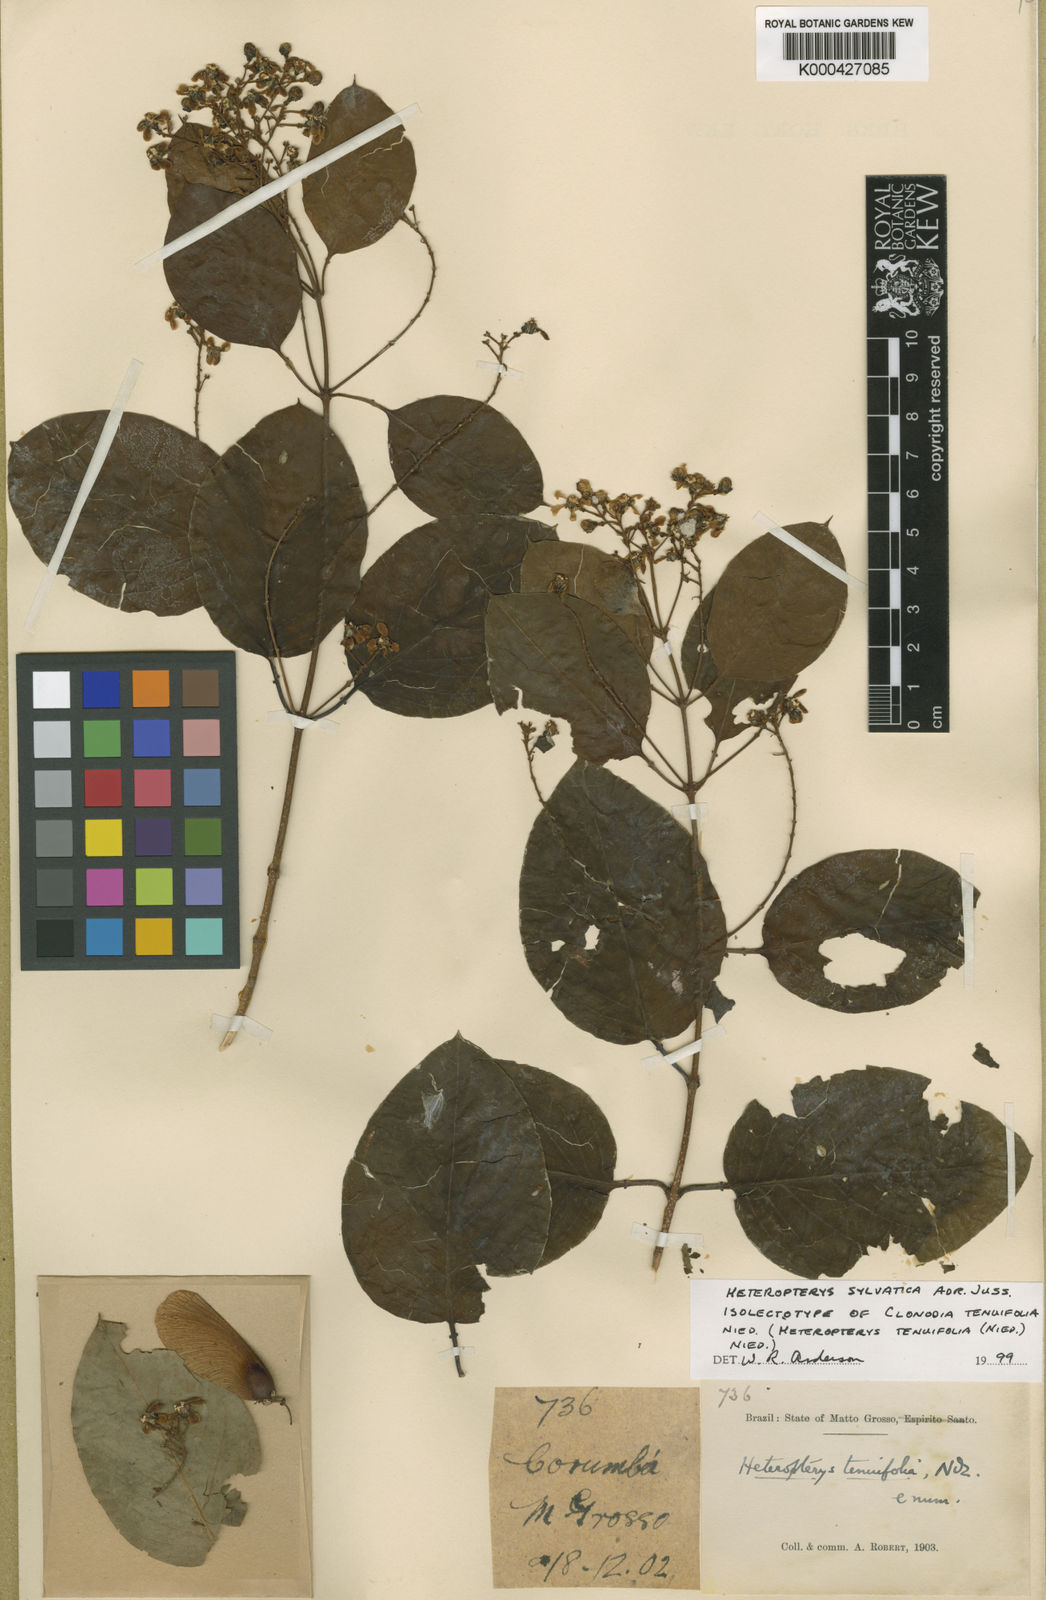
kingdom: Plantae
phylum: Tracheophyta
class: Magnoliopsida
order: Malpighiales
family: Malpighiaceae
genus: Heteropterys
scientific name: Heteropterys sylvatica
